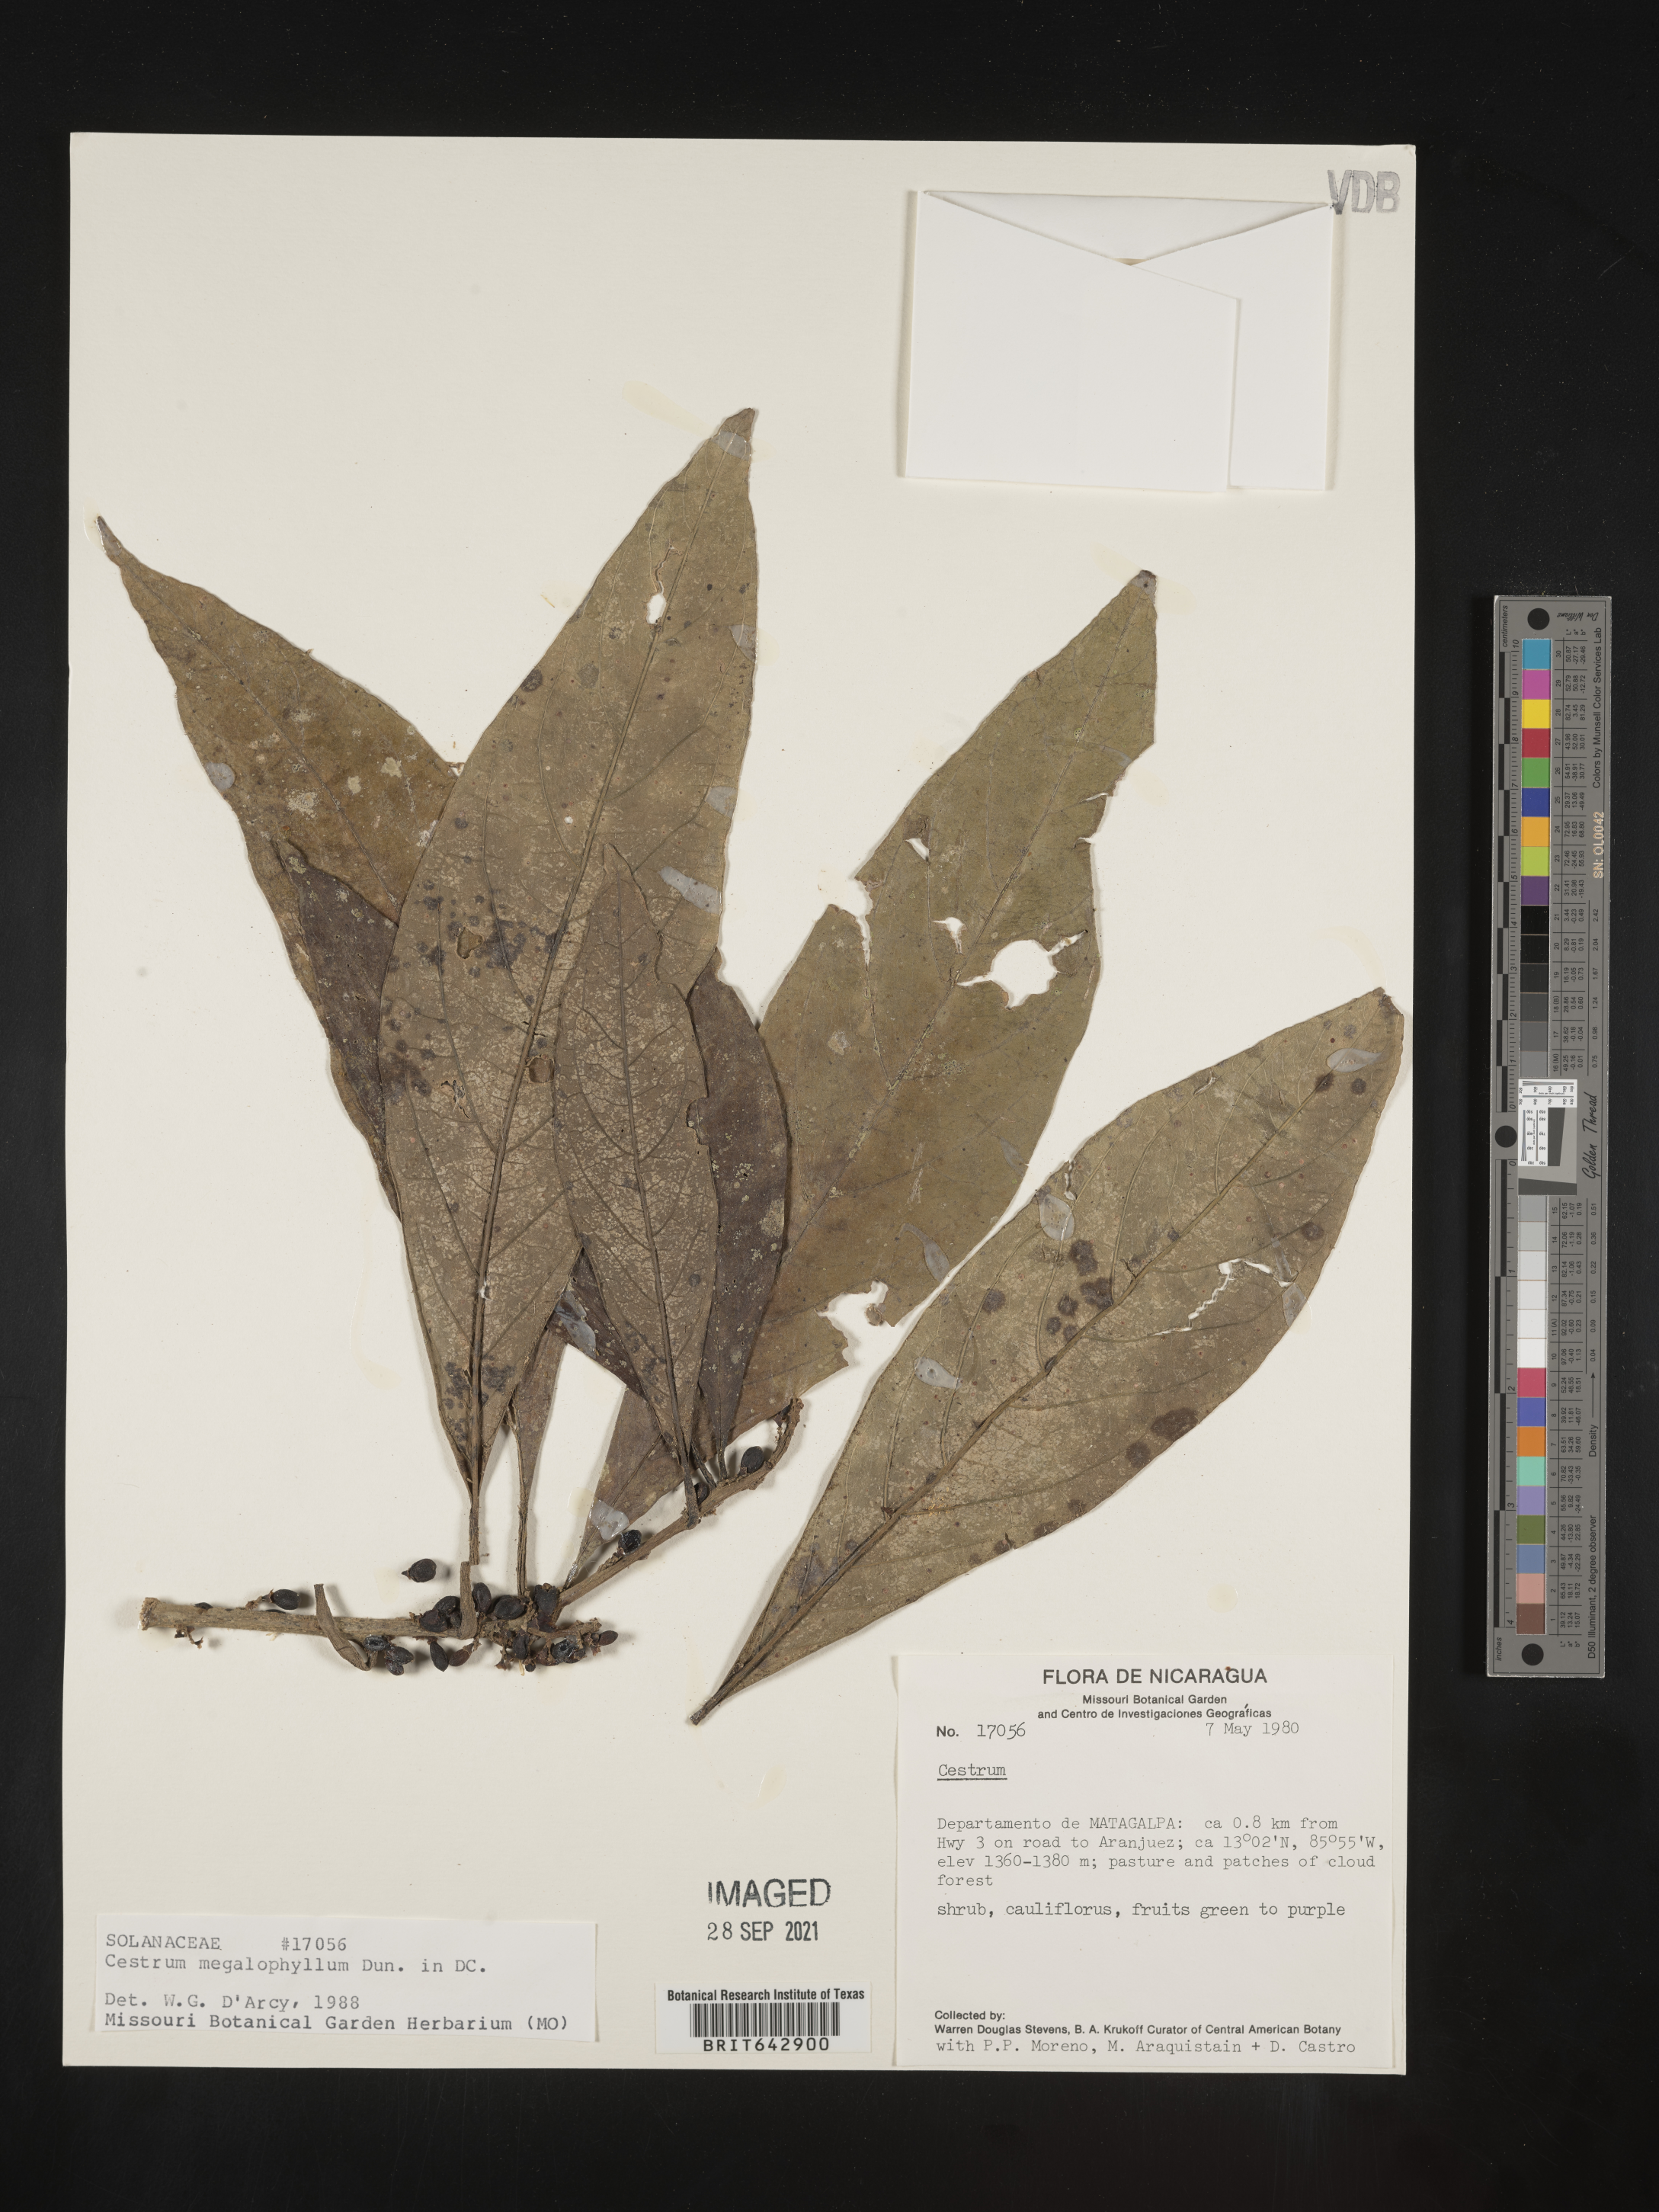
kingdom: Plantae
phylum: Tracheophyta
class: Magnoliopsida
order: Solanales
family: Solanaceae
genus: Cestrum
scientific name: Cestrum
